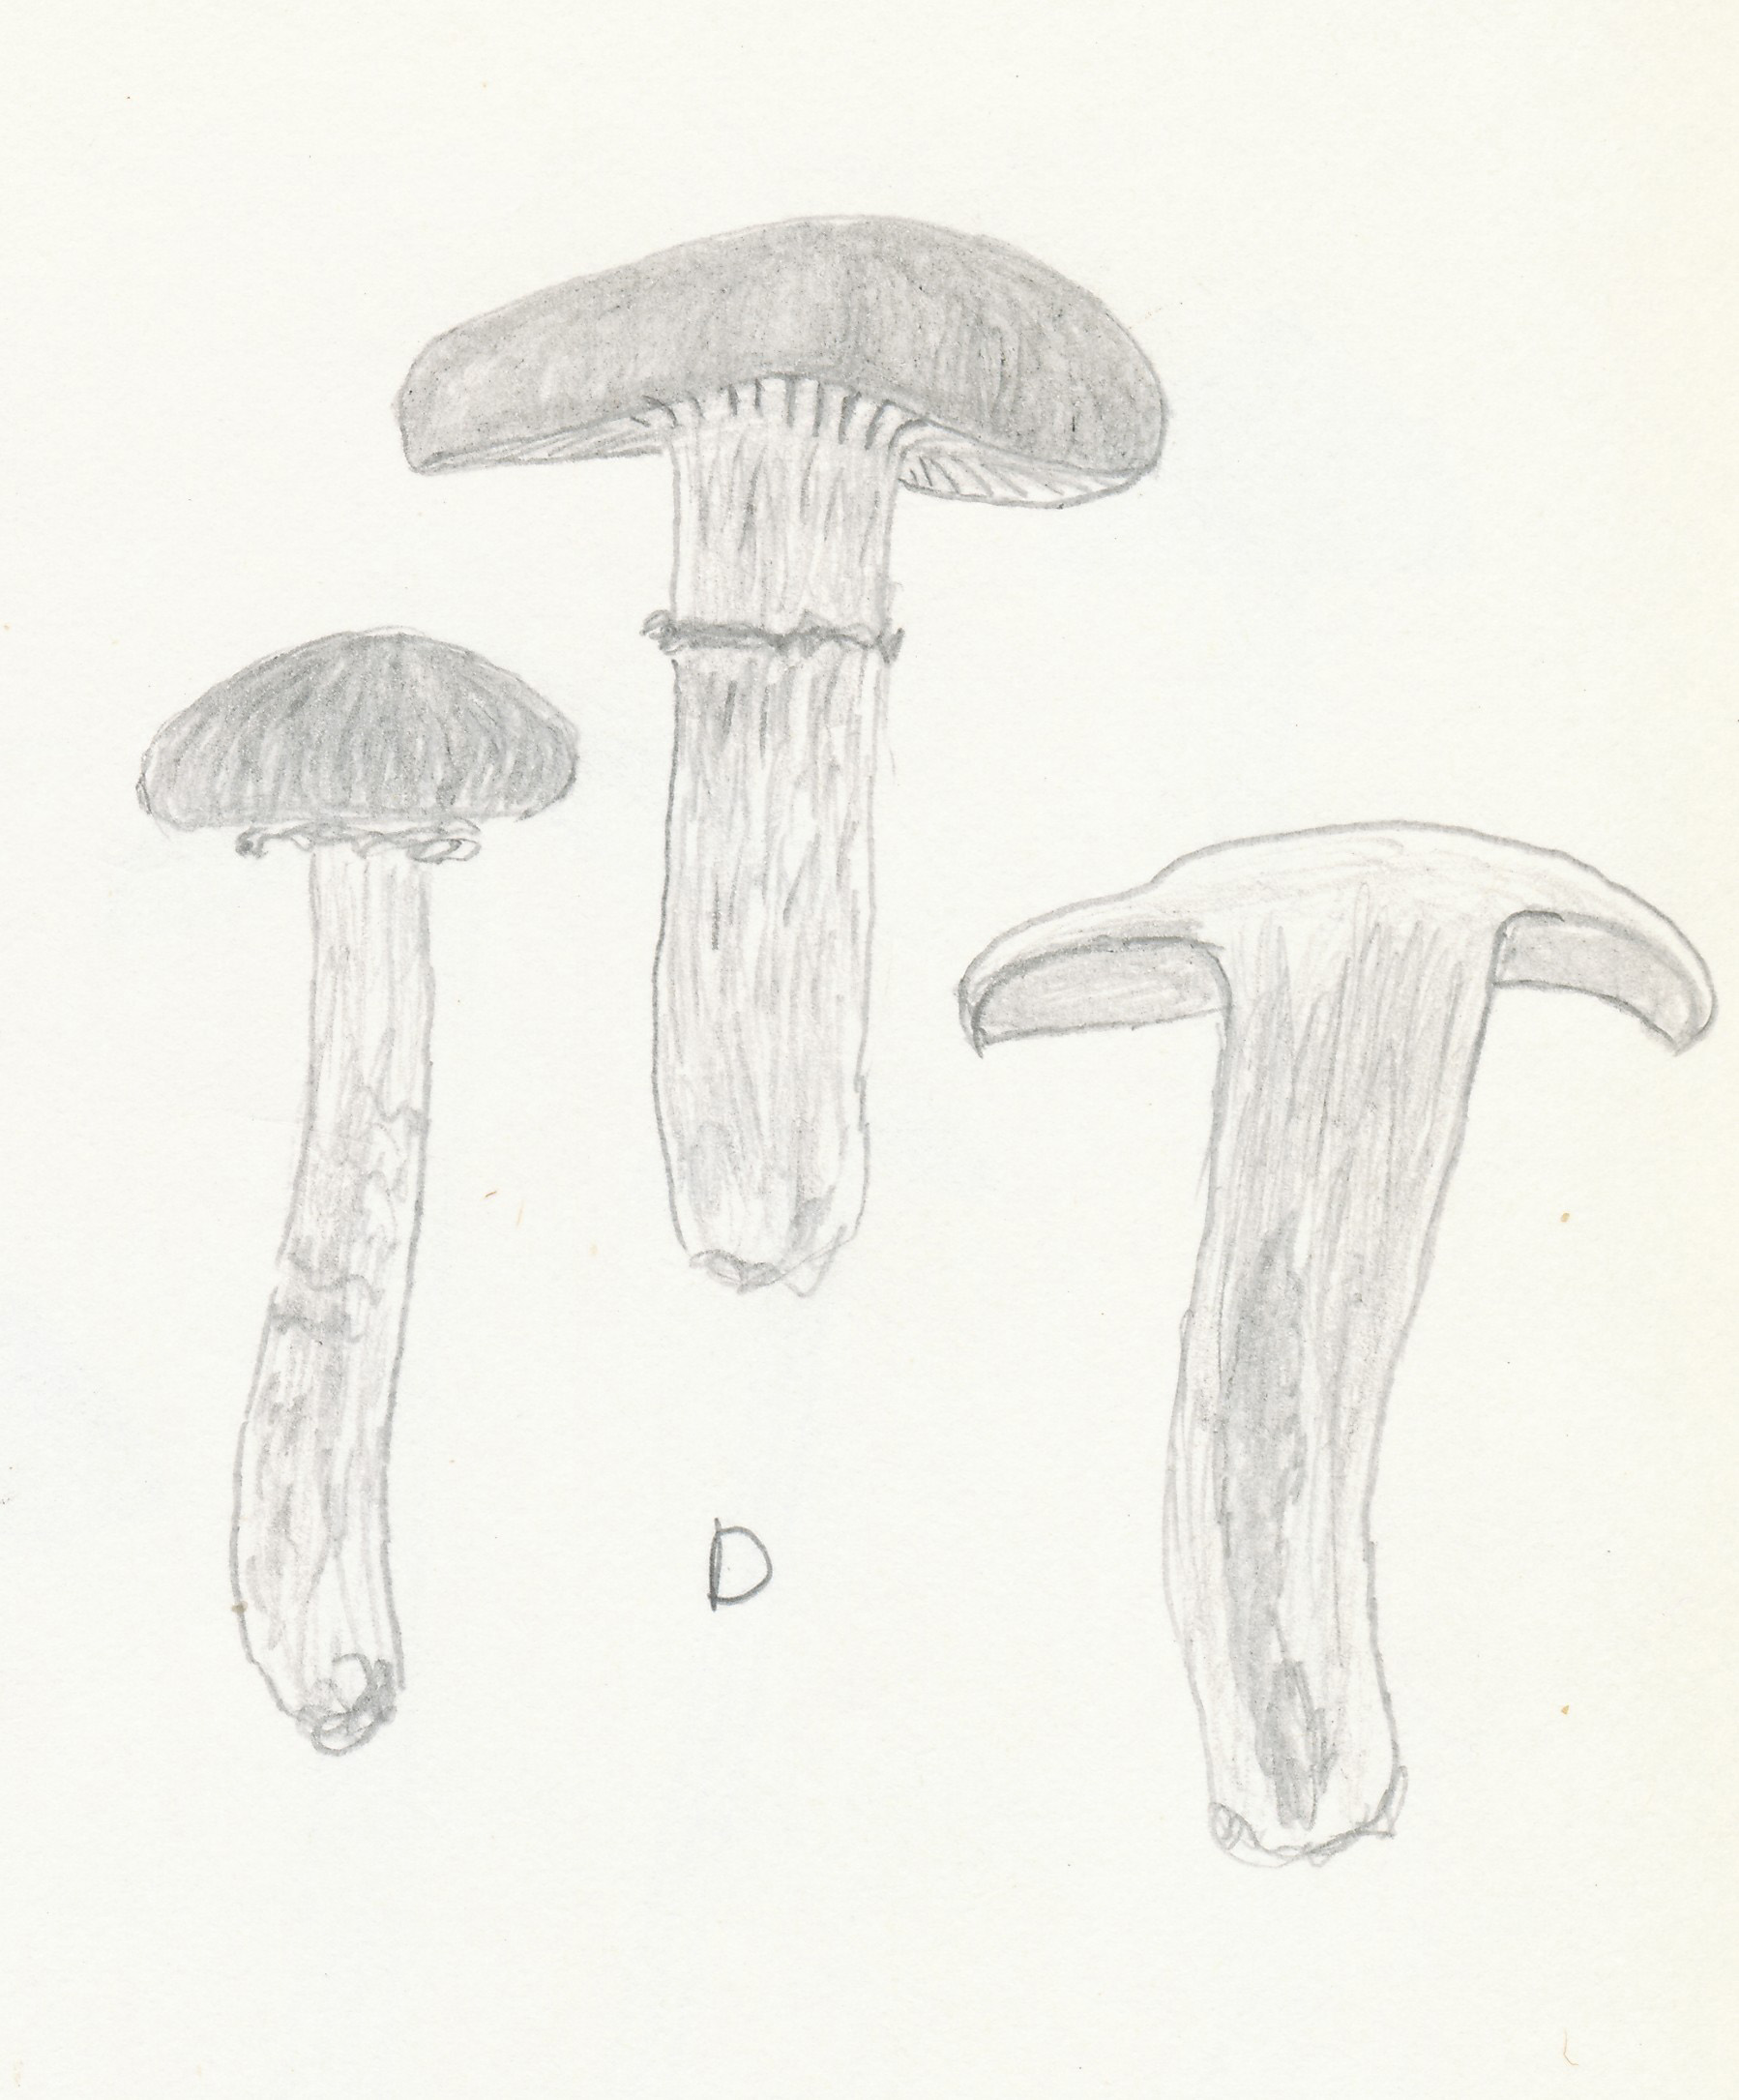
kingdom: Fungi
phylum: Basidiomycota
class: Agaricomycetes
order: Agaricales
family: Tubariaceae
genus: Cyclocybe
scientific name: Cyclocybe erebia
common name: mørk agerhat
